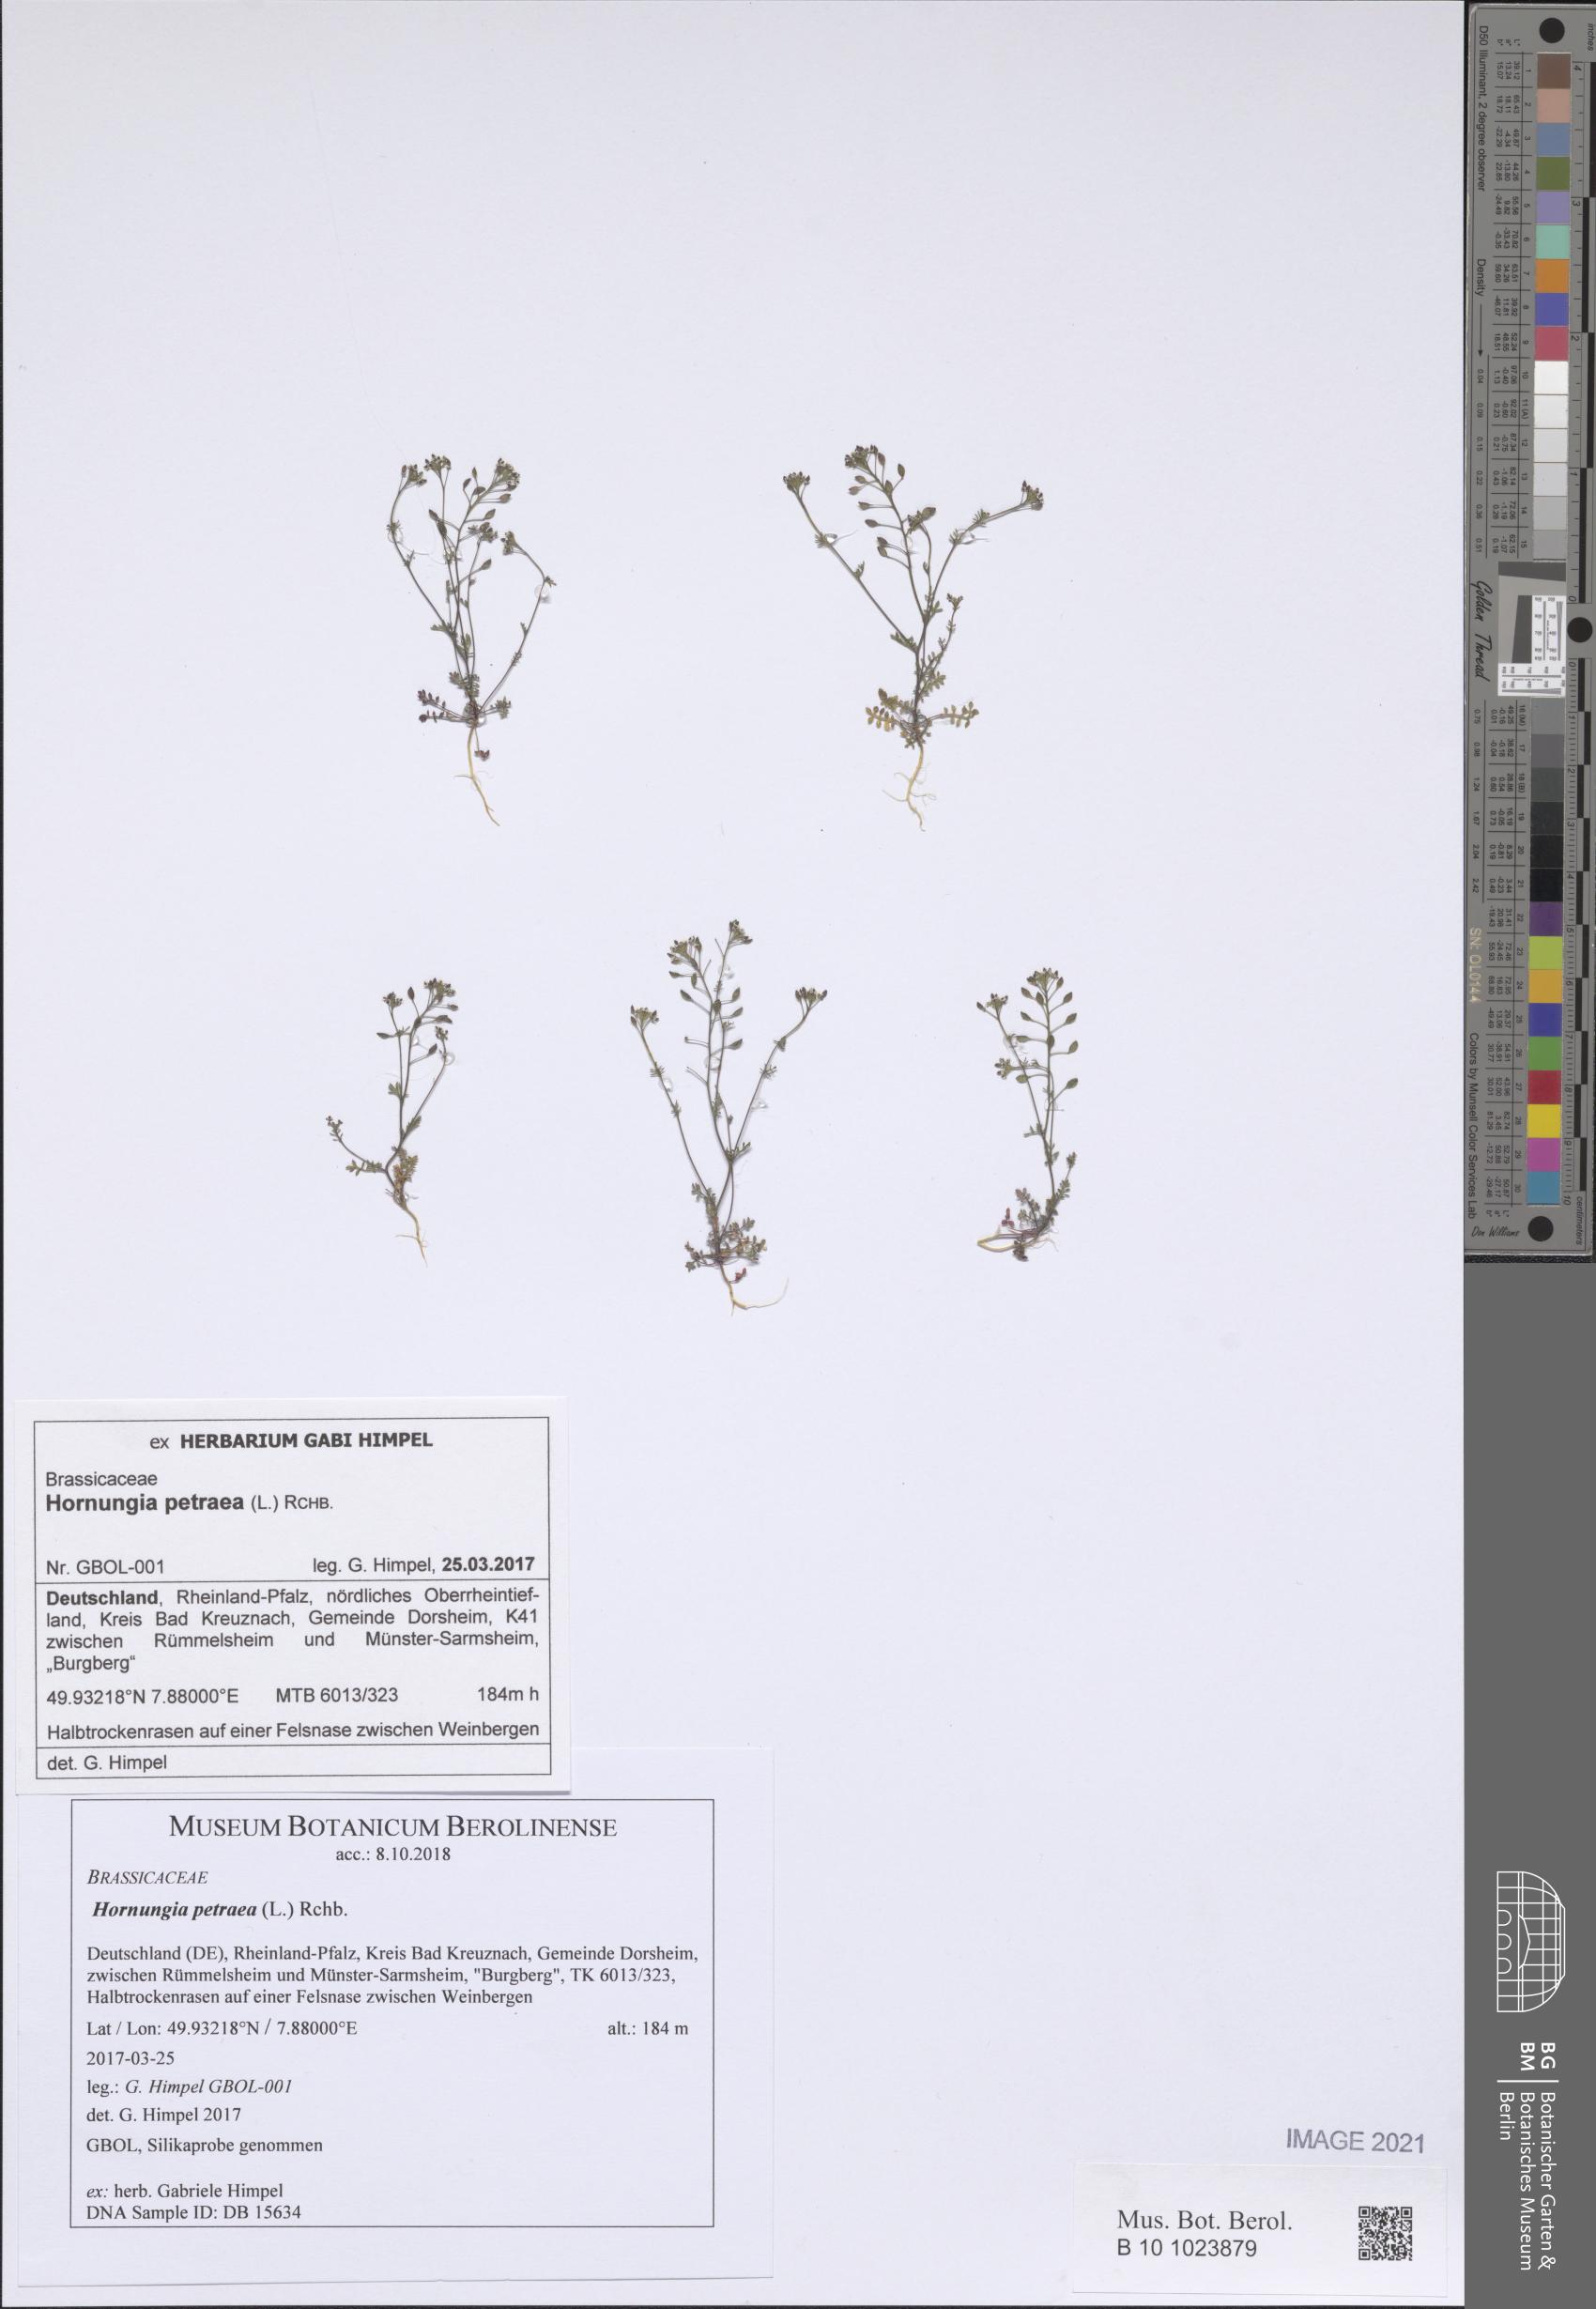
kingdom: Plantae
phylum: Tracheophyta
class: Magnoliopsida
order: Brassicales
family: Brassicaceae
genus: Hornungia
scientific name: Hornungia petraea
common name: Hutchinsia
